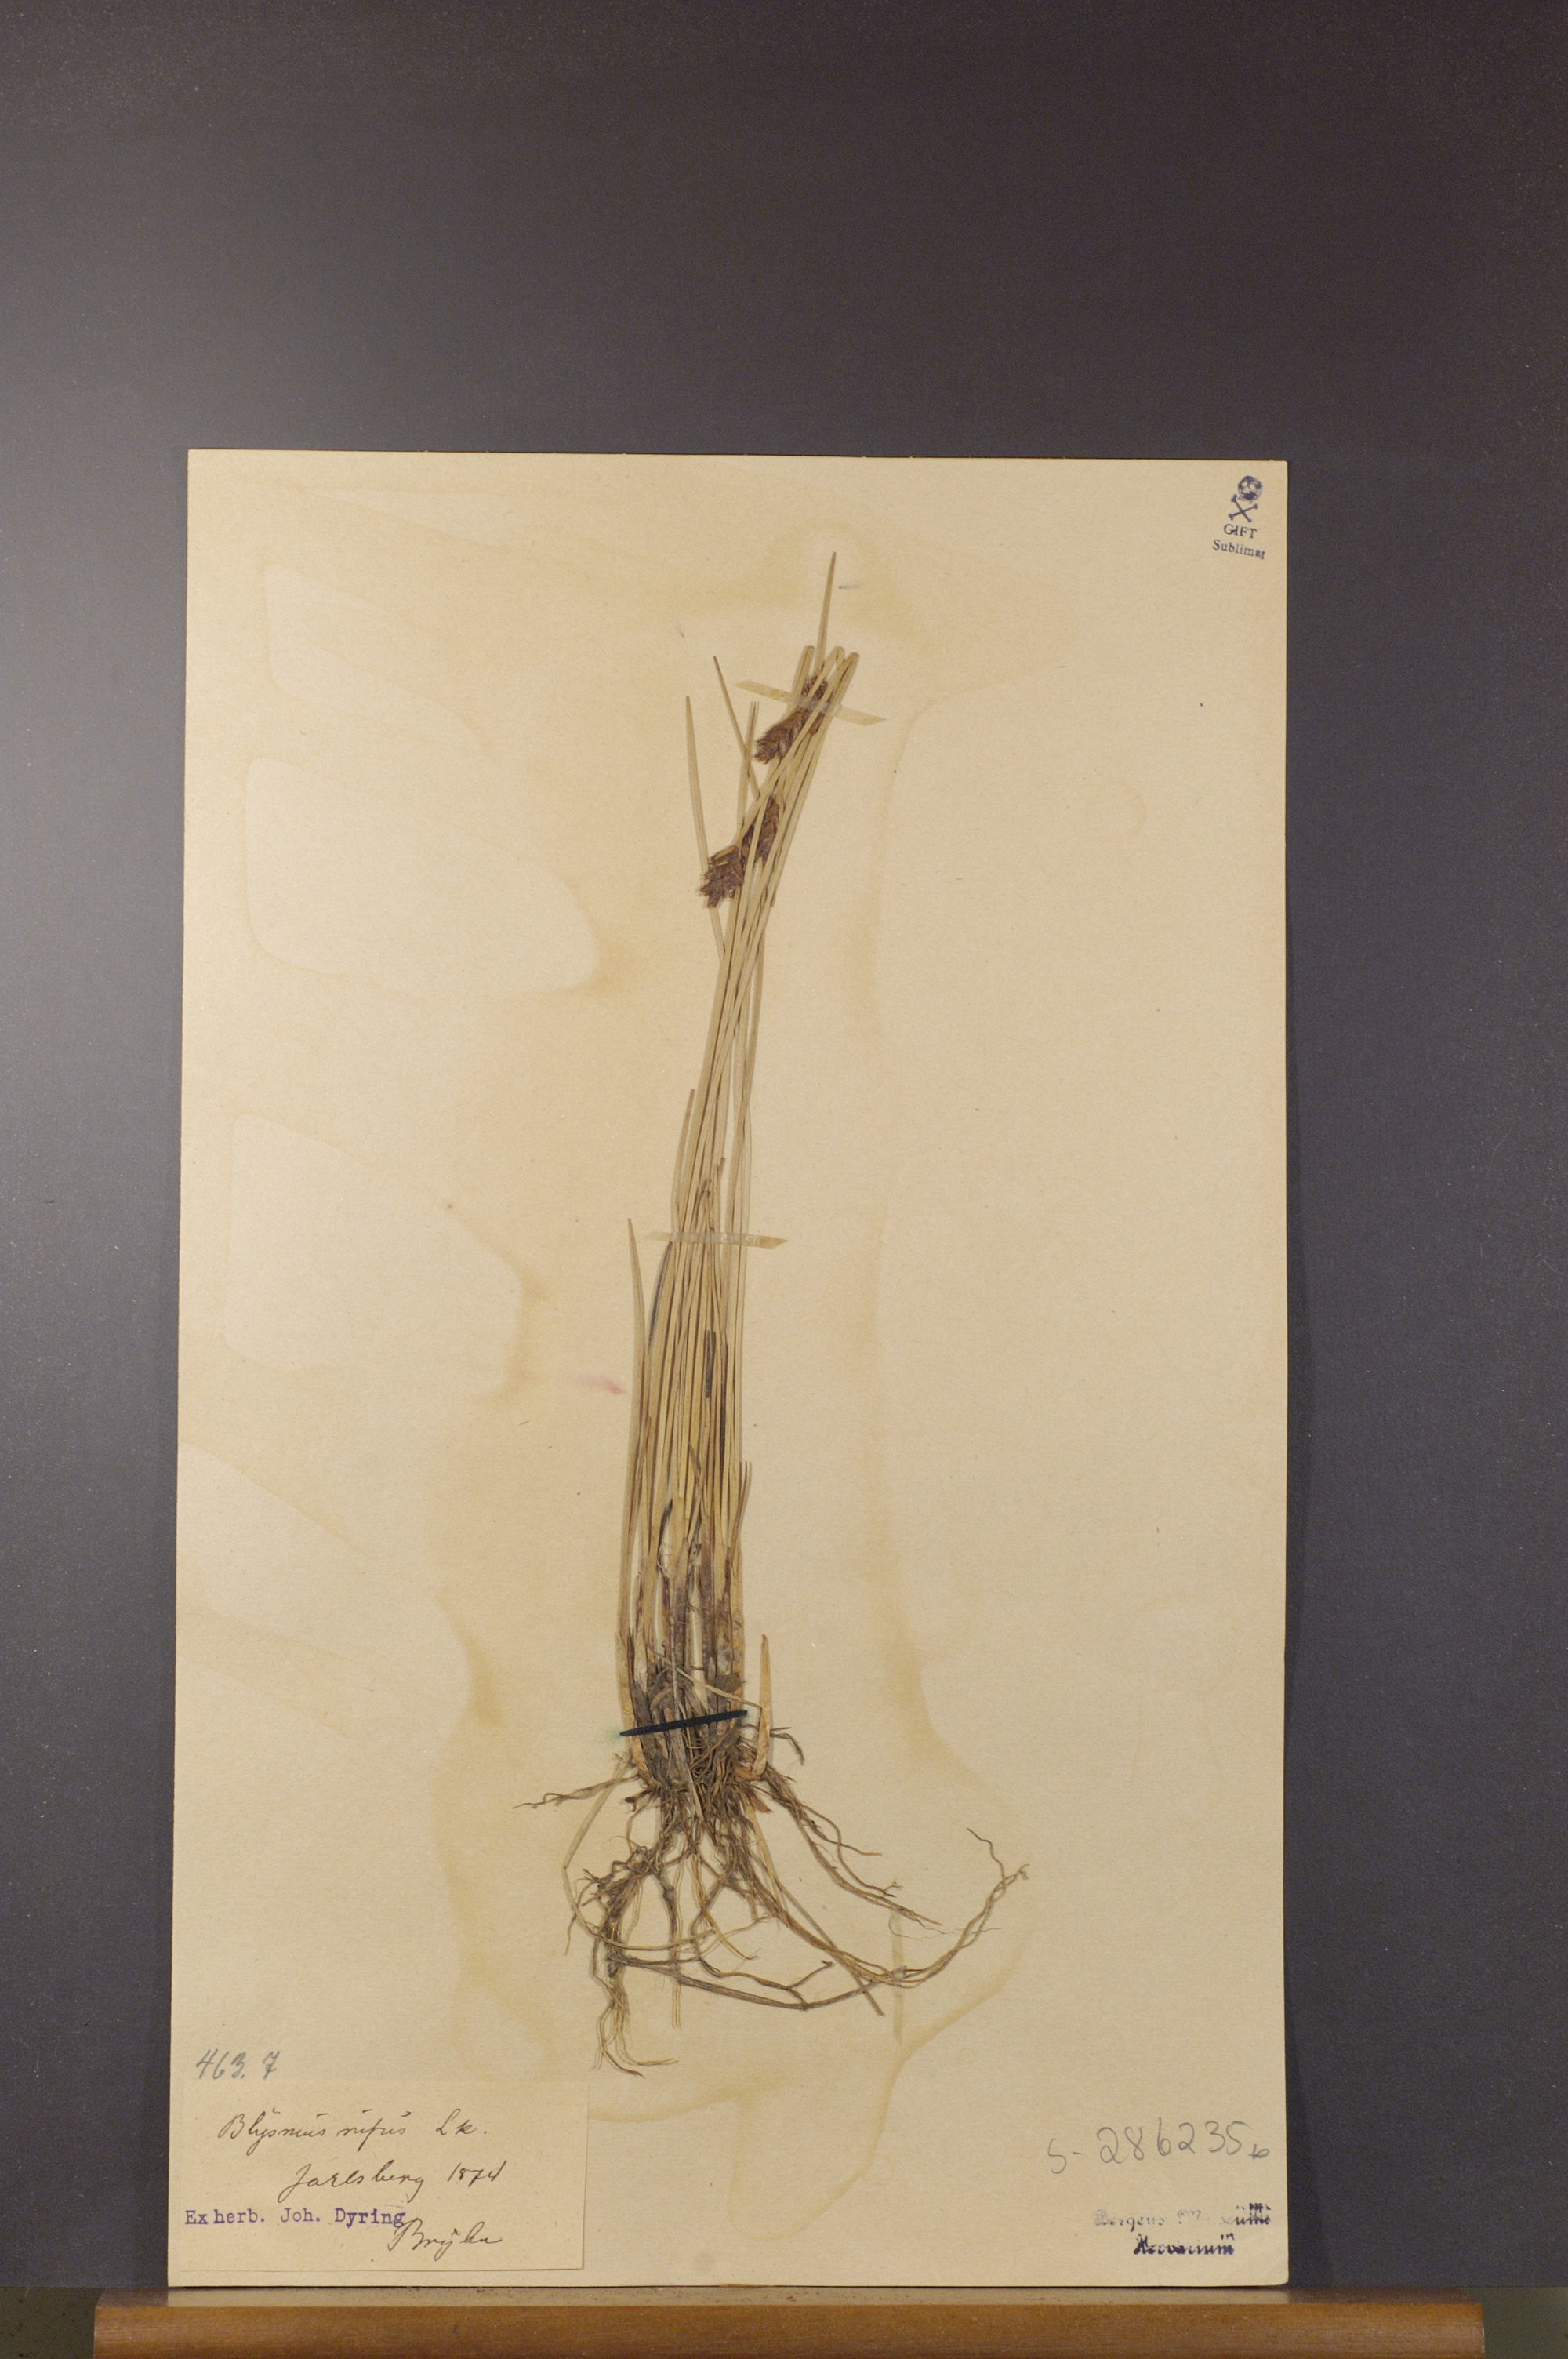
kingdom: Plantae
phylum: Tracheophyta
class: Liliopsida
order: Poales
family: Cyperaceae
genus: Blysmus
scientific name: Blysmus rufus
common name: Saltmarsh flat-sedge
